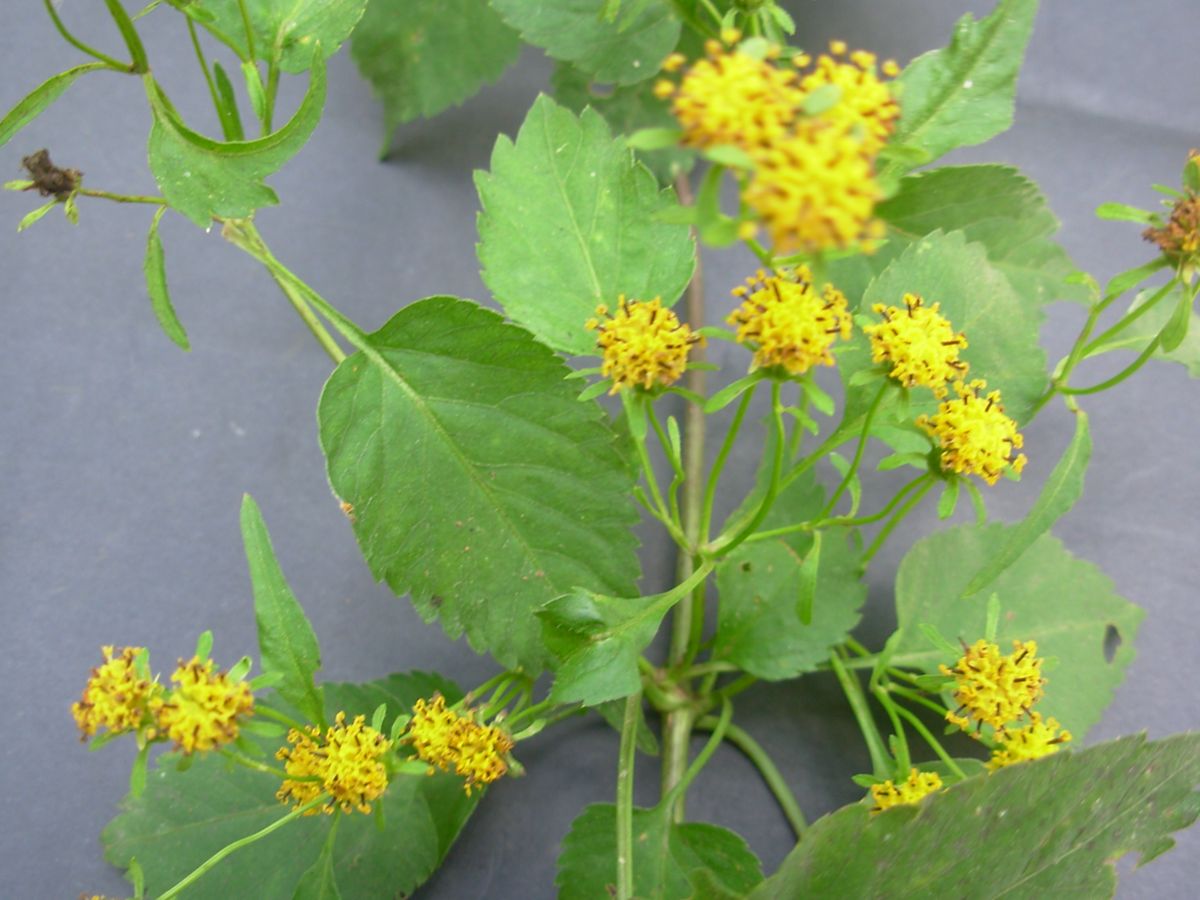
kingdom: Plantae
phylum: Tracheophyta
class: Magnoliopsida
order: Asterales
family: Asteraceae
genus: Bidens
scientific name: Bidens reptans
